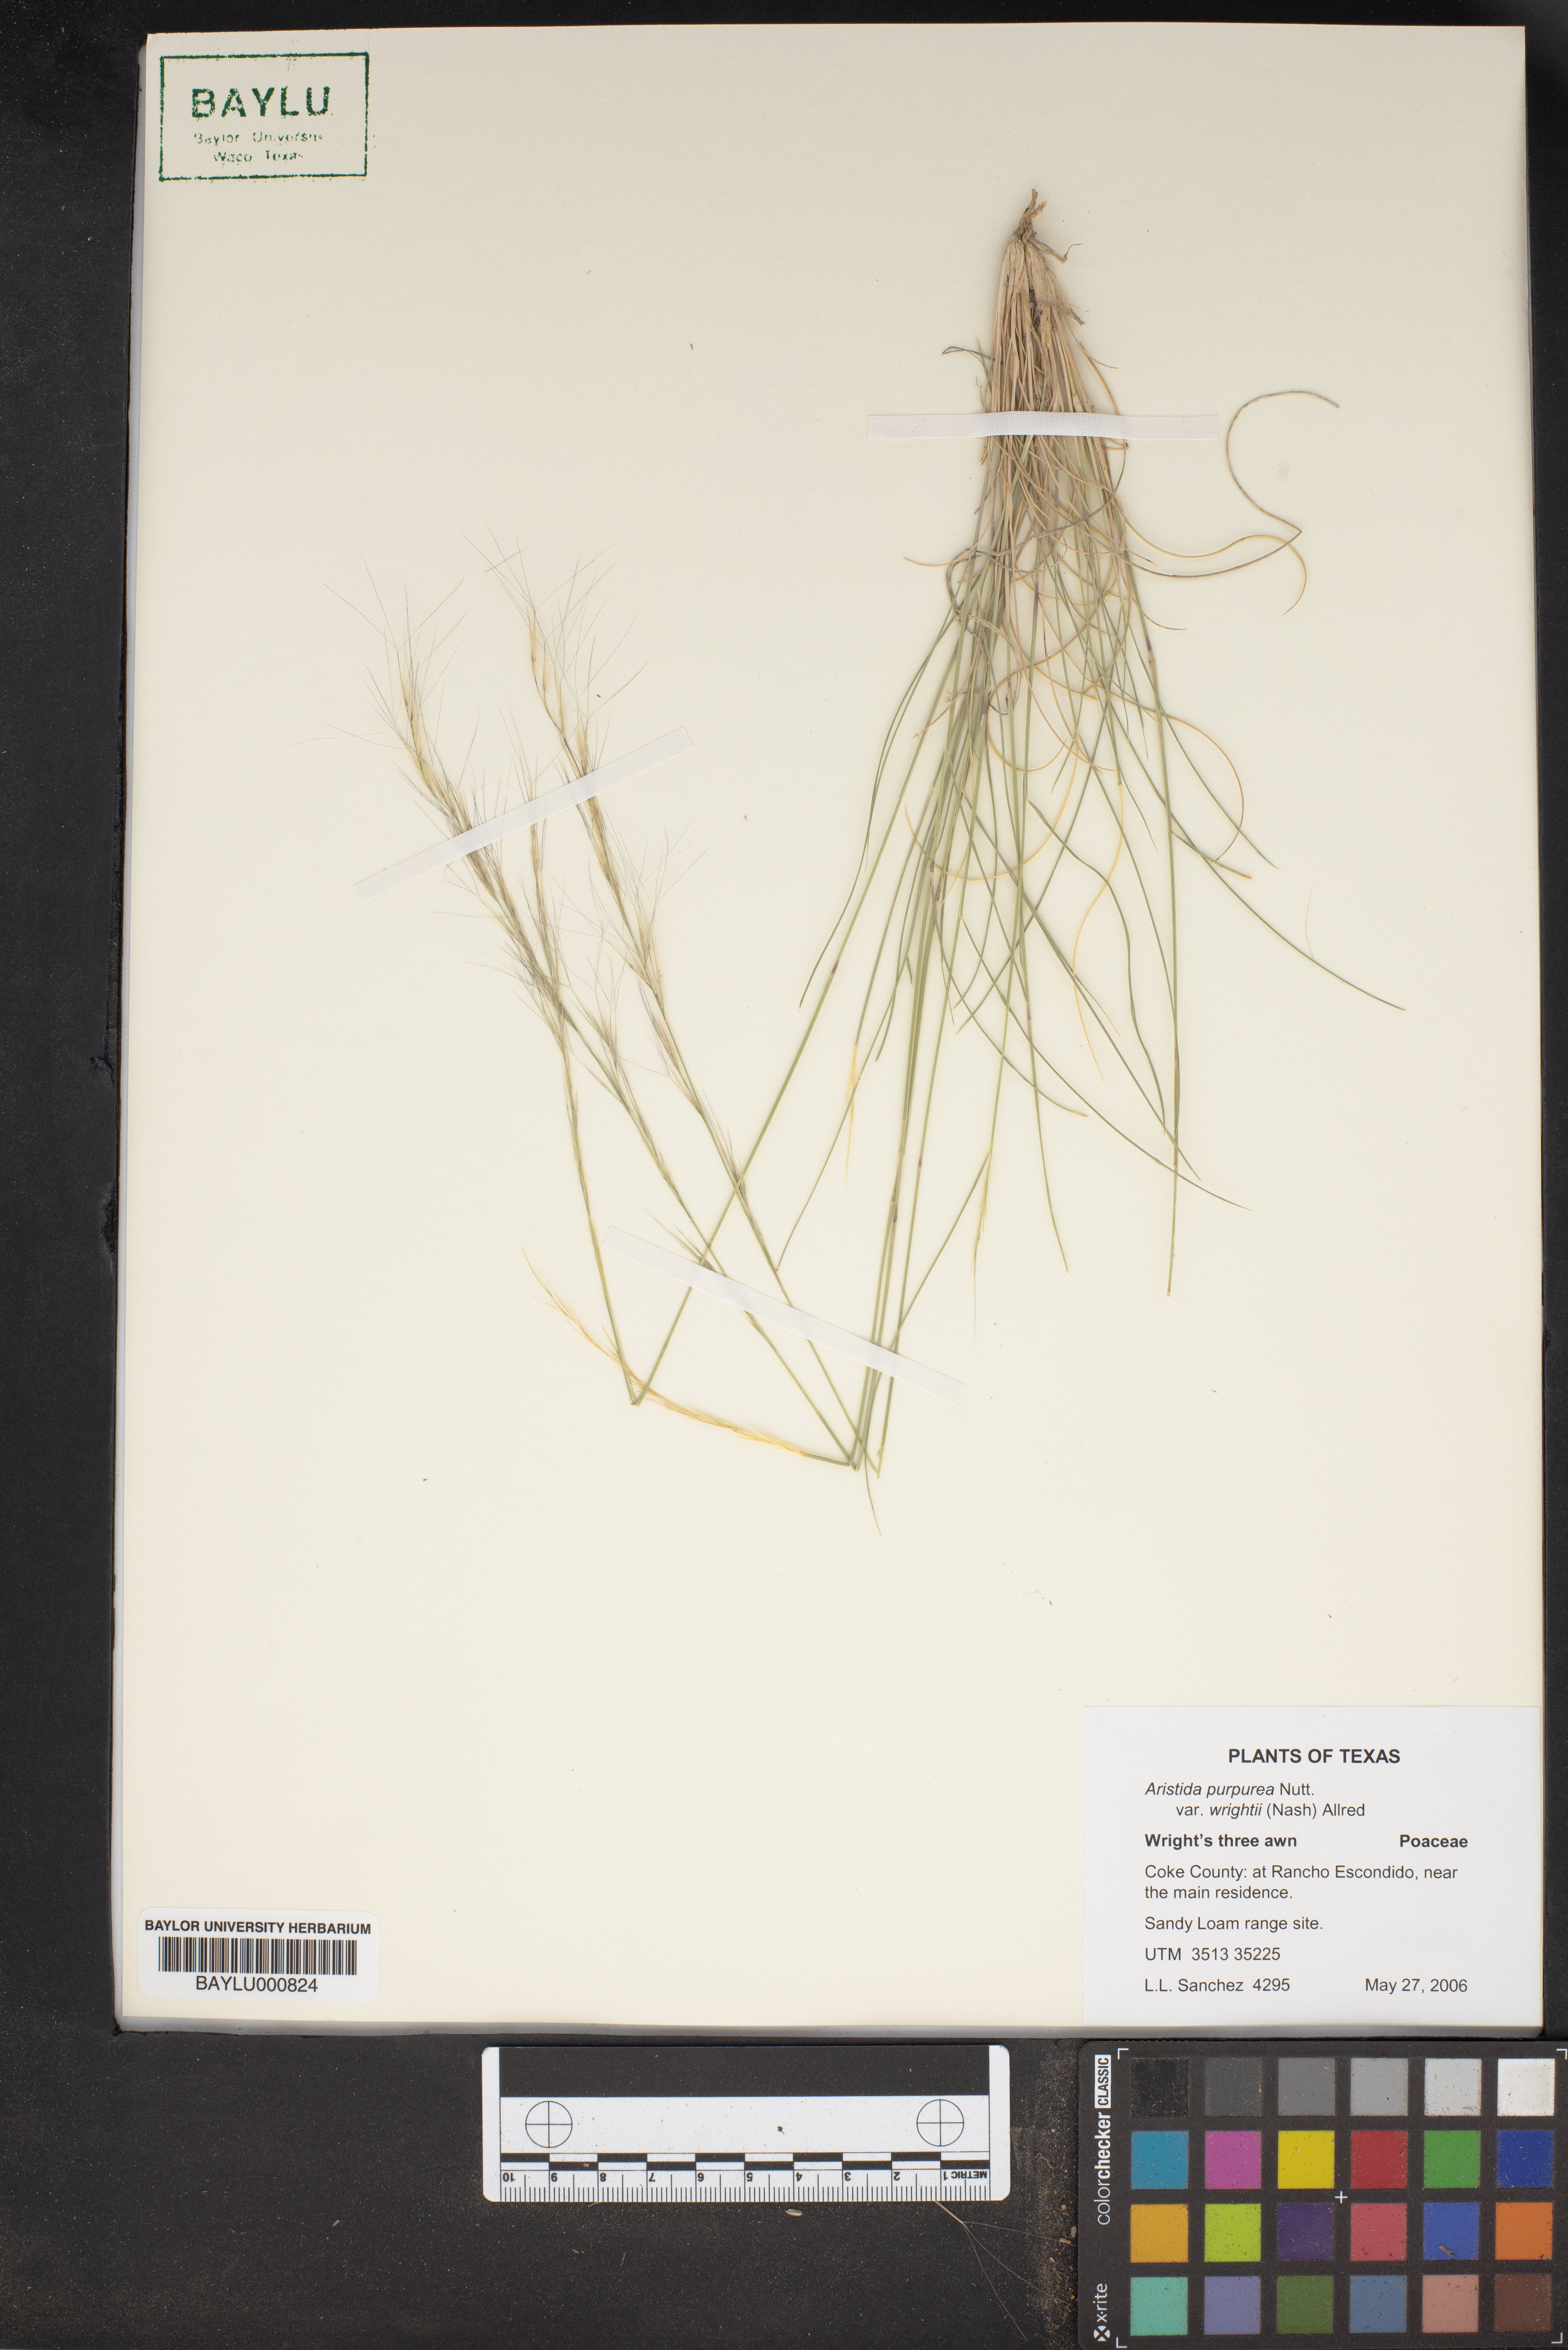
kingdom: Plantae
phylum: Tracheophyta
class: Liliopsida
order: Poales
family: Poaceae
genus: Aristida
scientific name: Aristida wrightii
